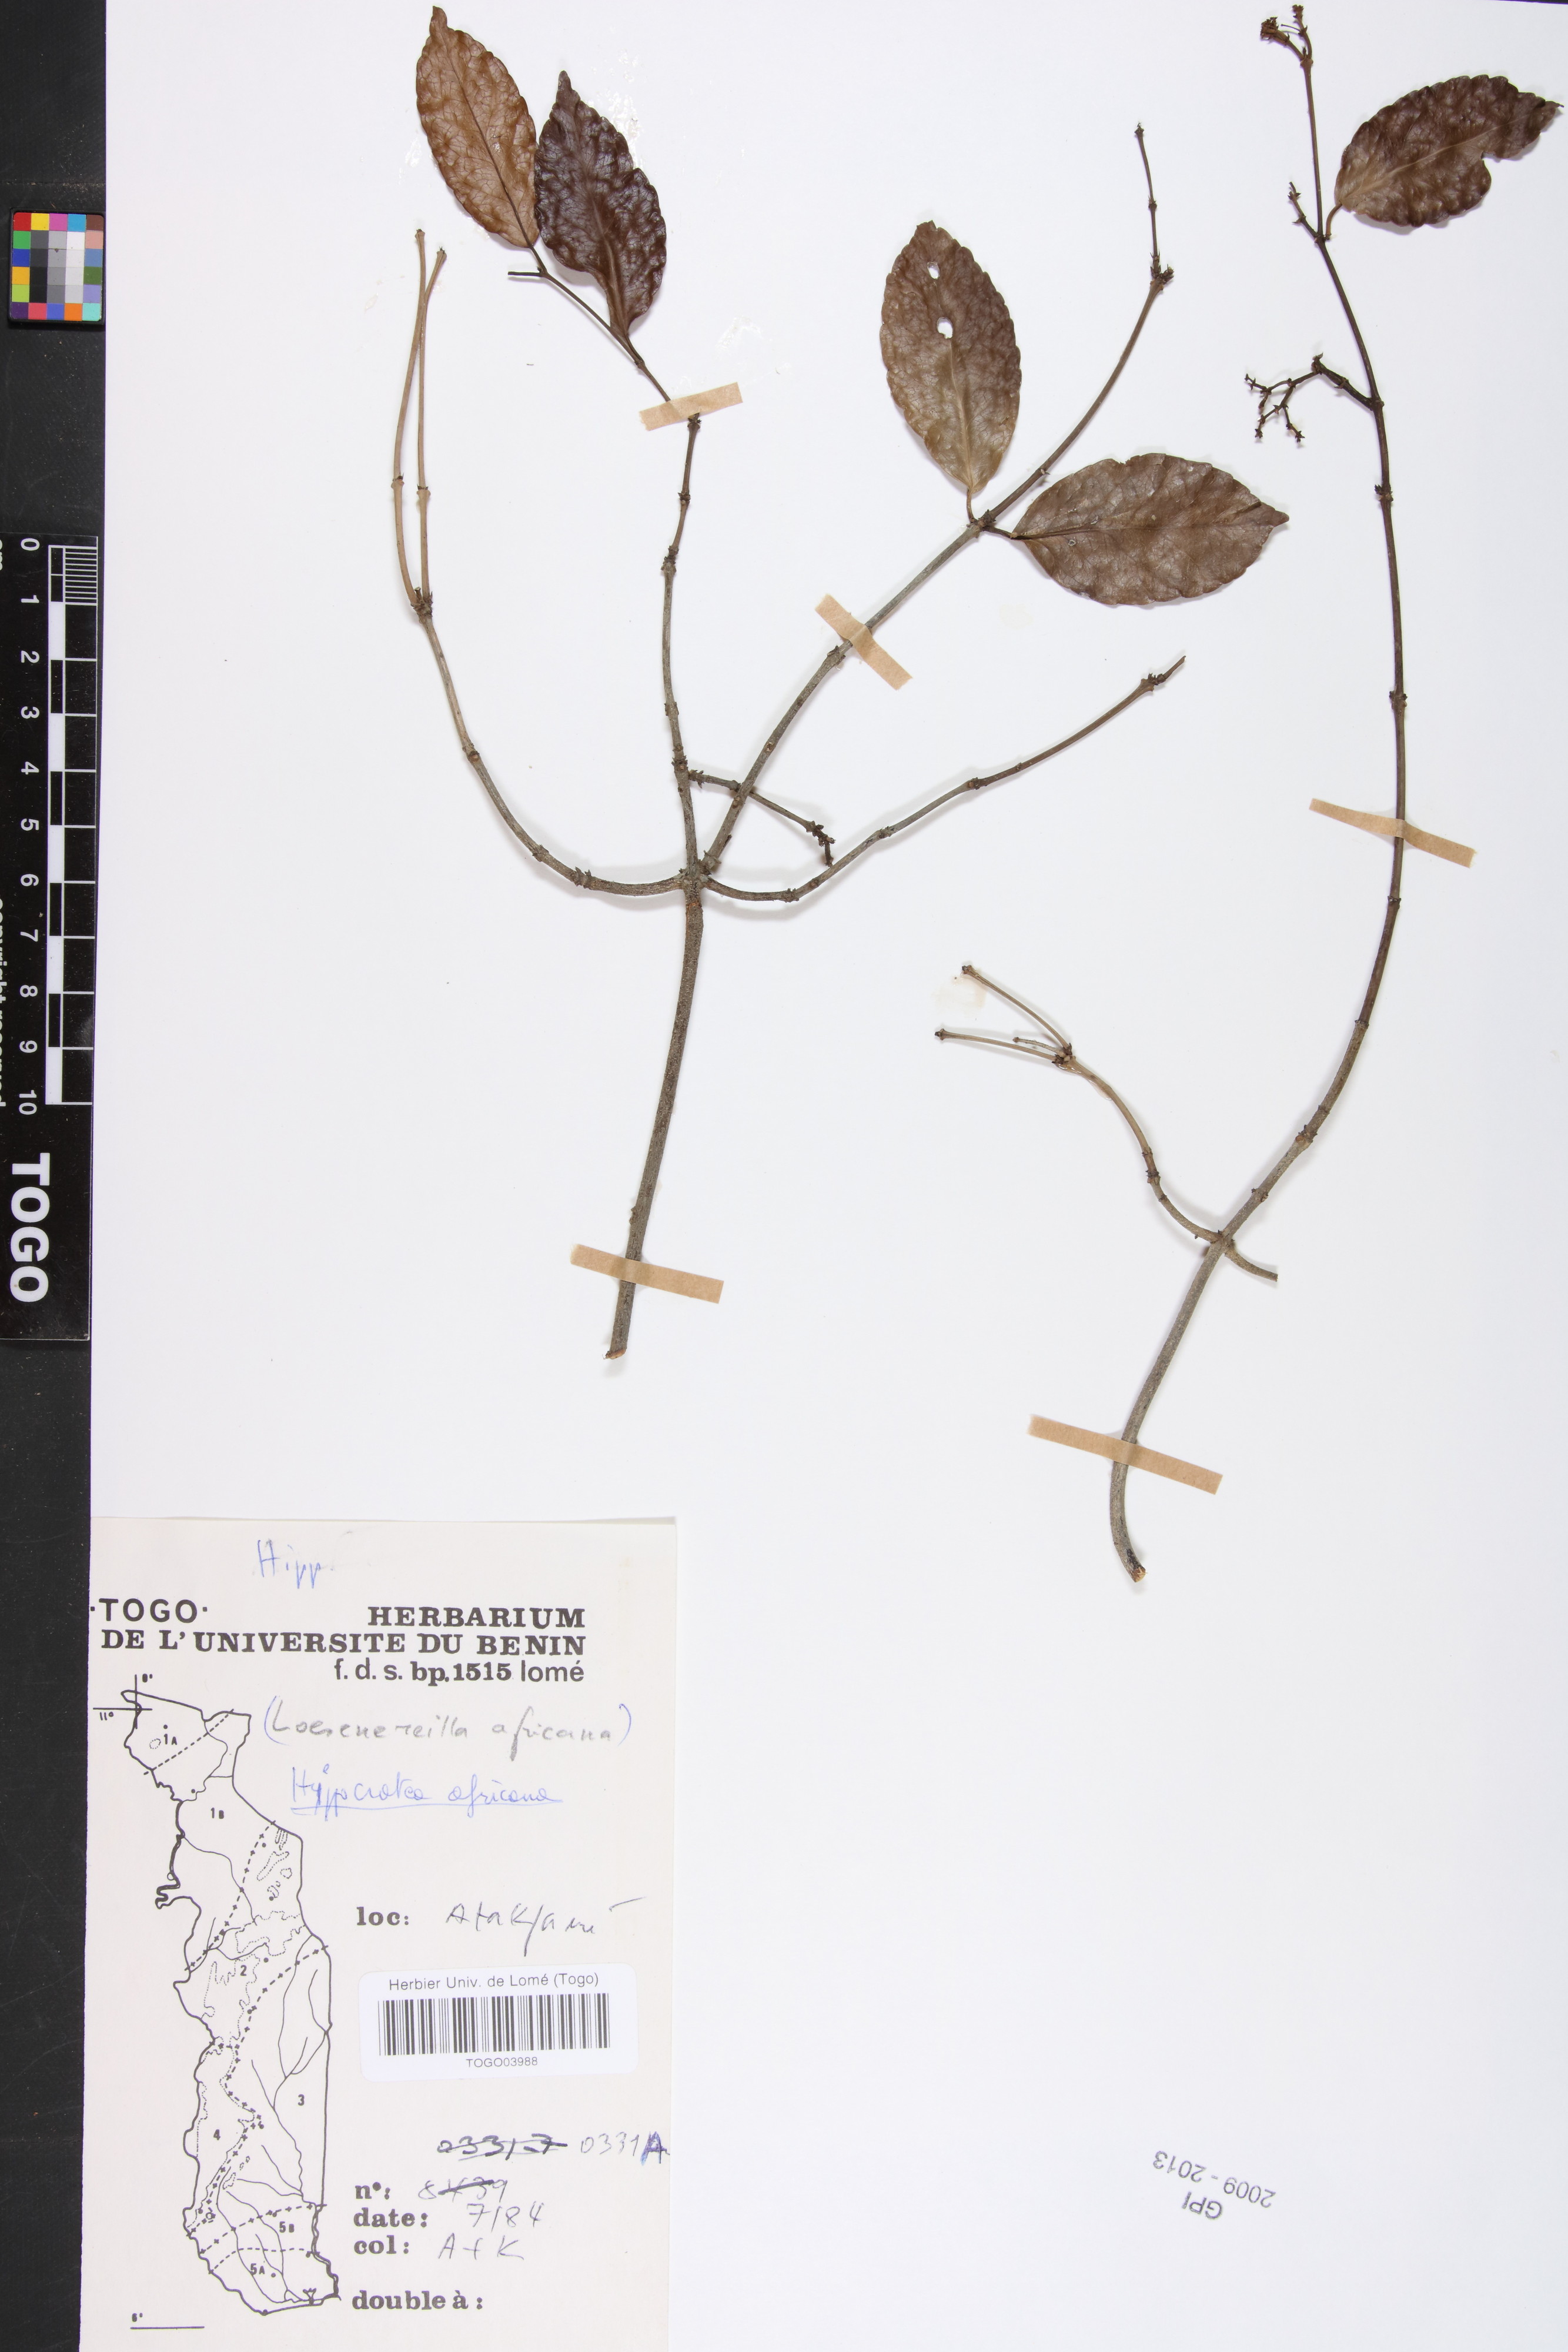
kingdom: Plantae
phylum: Tracheophyta
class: Magnoliopsida
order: Celastrales
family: Celastraceae
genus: Loeseneriella
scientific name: Loeseneriella africana
